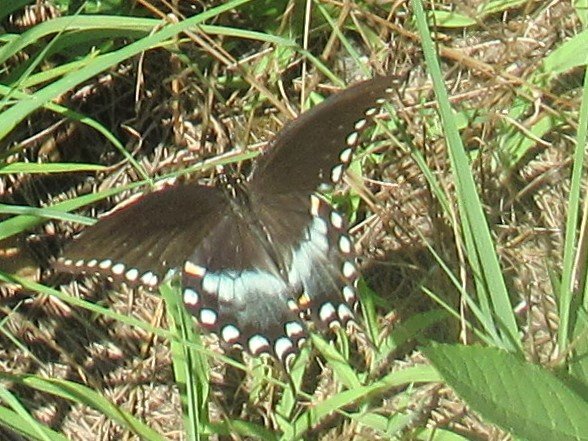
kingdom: Animalia
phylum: Arthropoda
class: Insecta
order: Lepidoptera
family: Papilionidae
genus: Pterourus
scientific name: Pterourus troilus
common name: Spicebush Swallowtail
